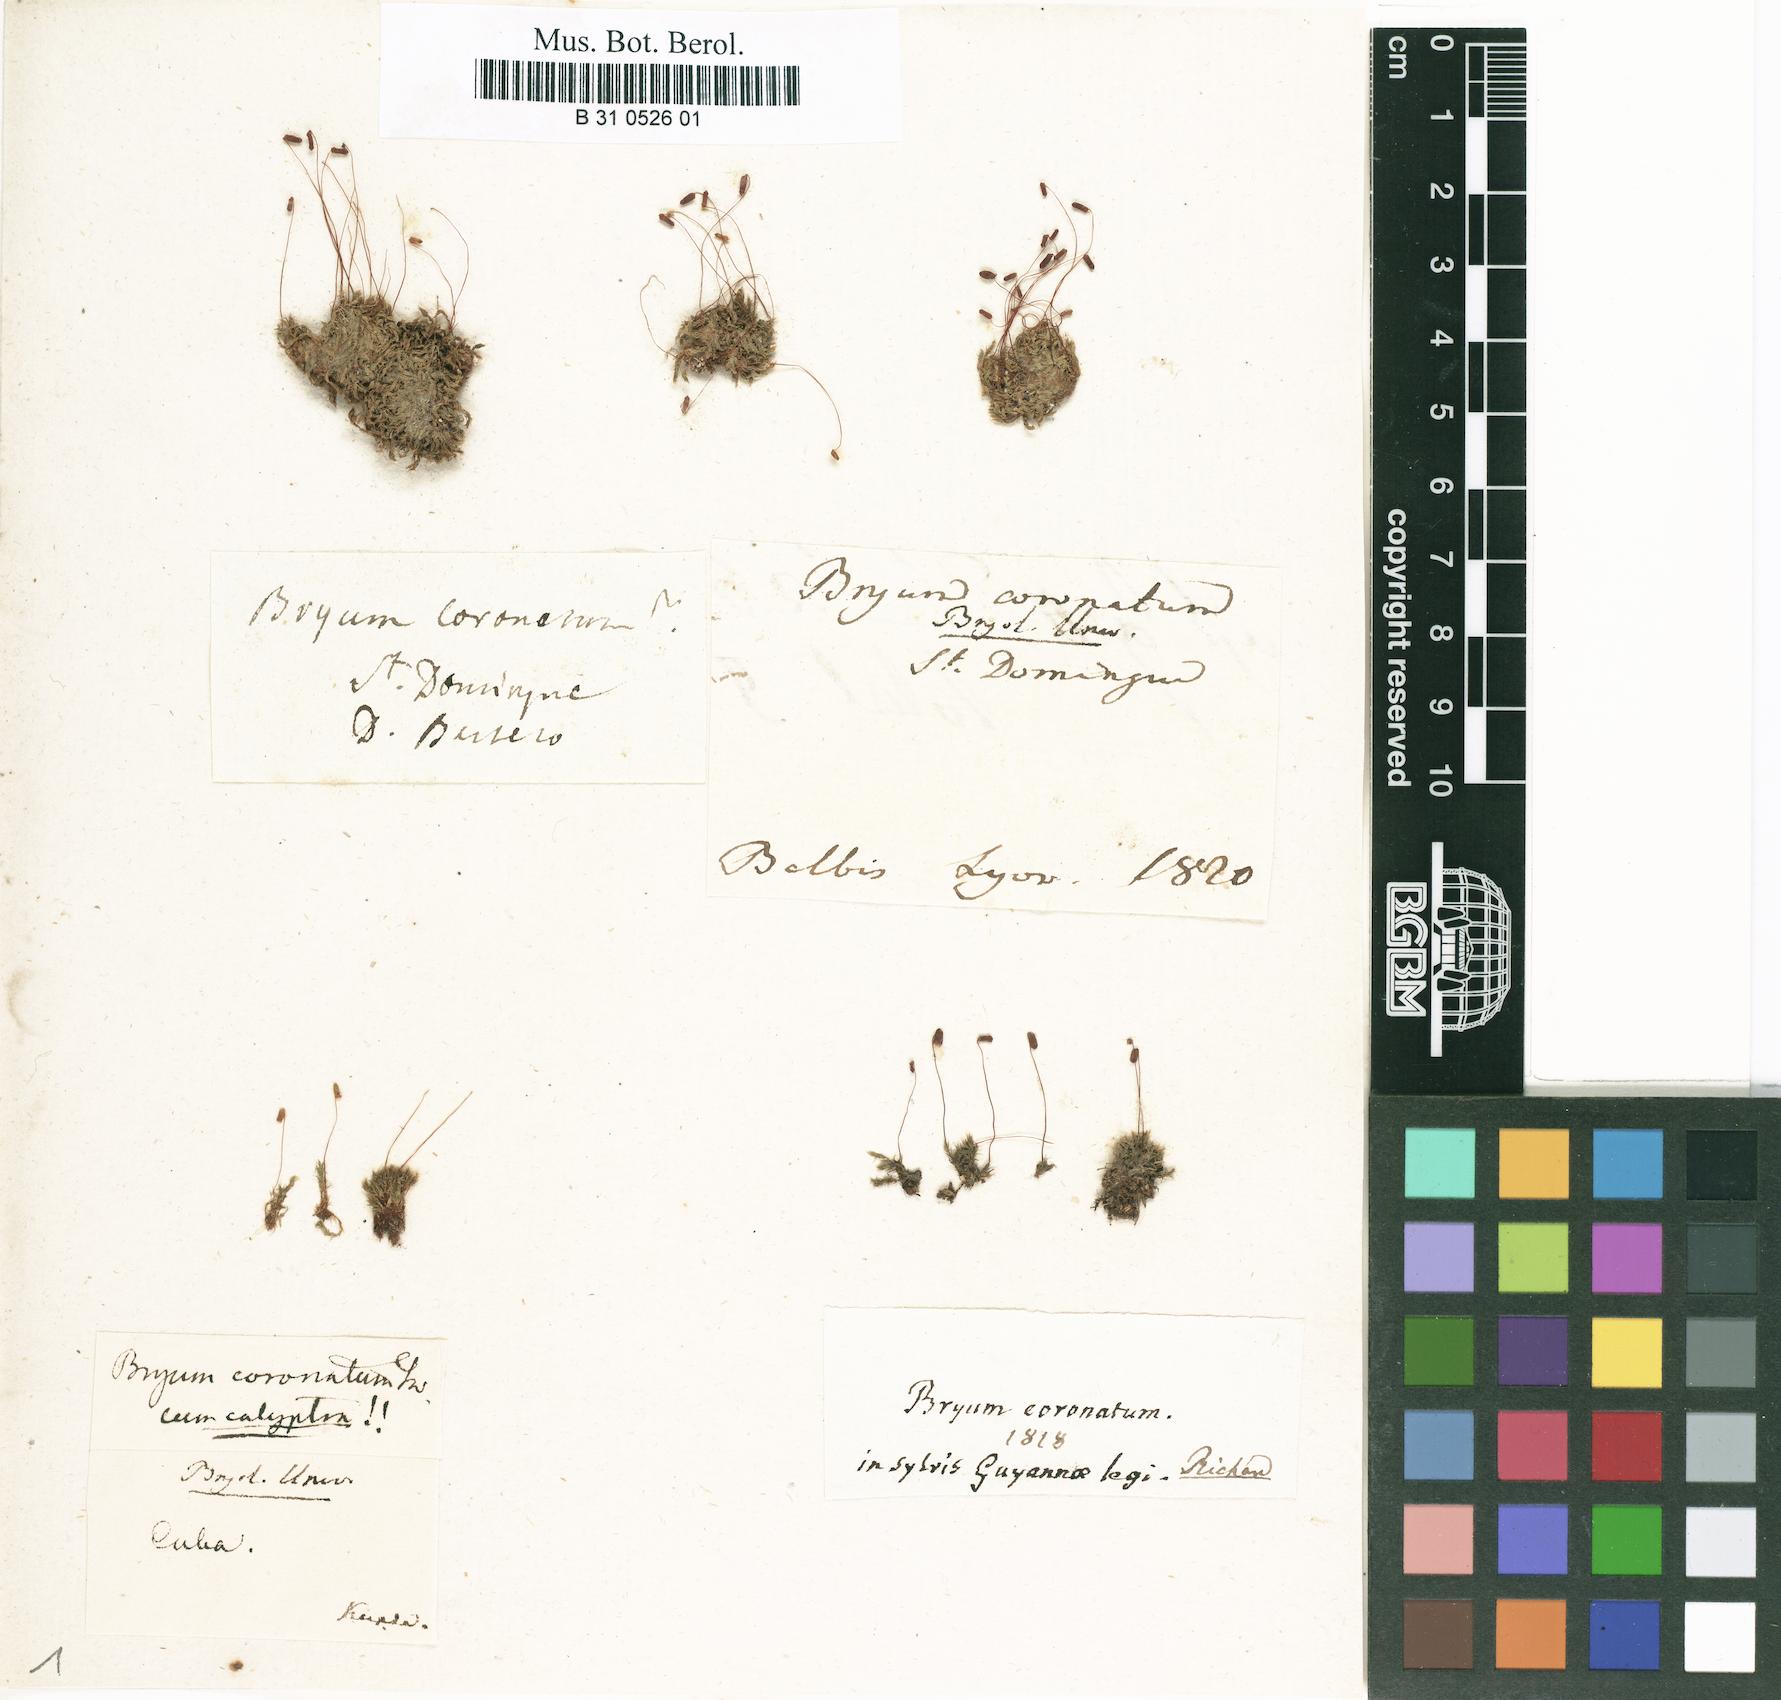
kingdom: Plantae
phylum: Bryophyta
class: Bryopsida
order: Bryales
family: Bryaceae
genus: Gemmabryum
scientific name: Gemmabryum coronatum
